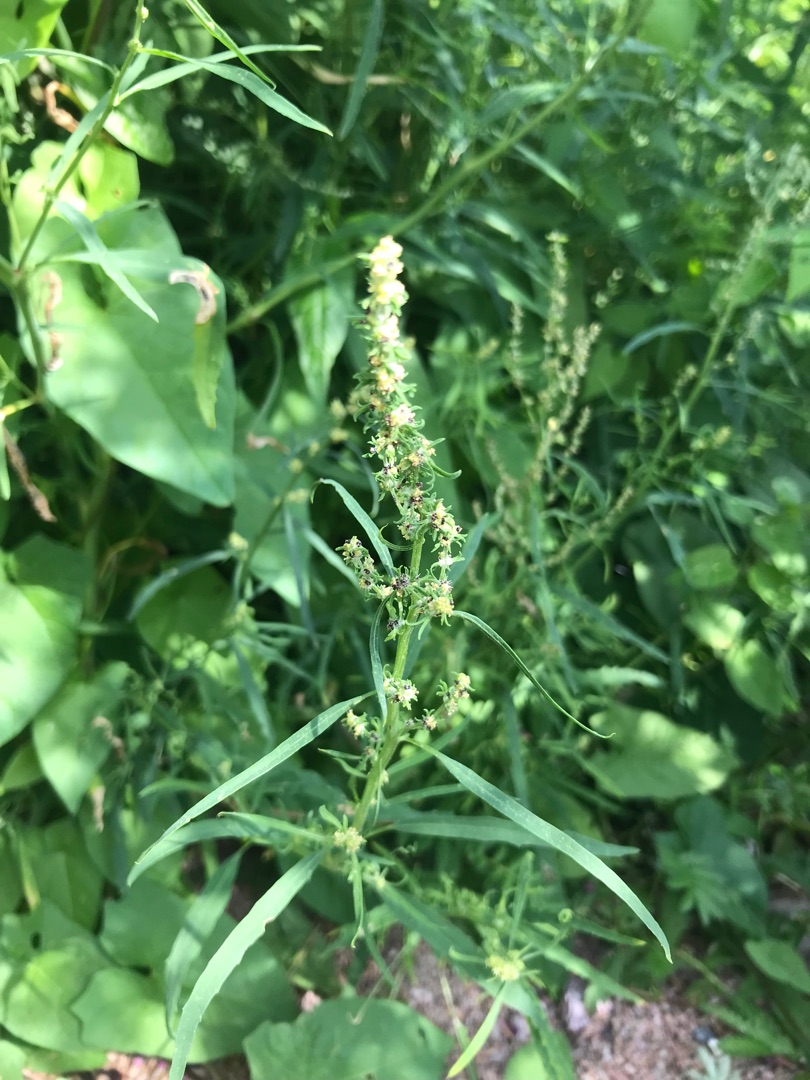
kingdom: Plantae
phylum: Tracheophyta
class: Magnoliopsida
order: Caryophyllales
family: Amaranthaceae
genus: Atriplex
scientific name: Atriplex littoralis
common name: Strand-mælde
